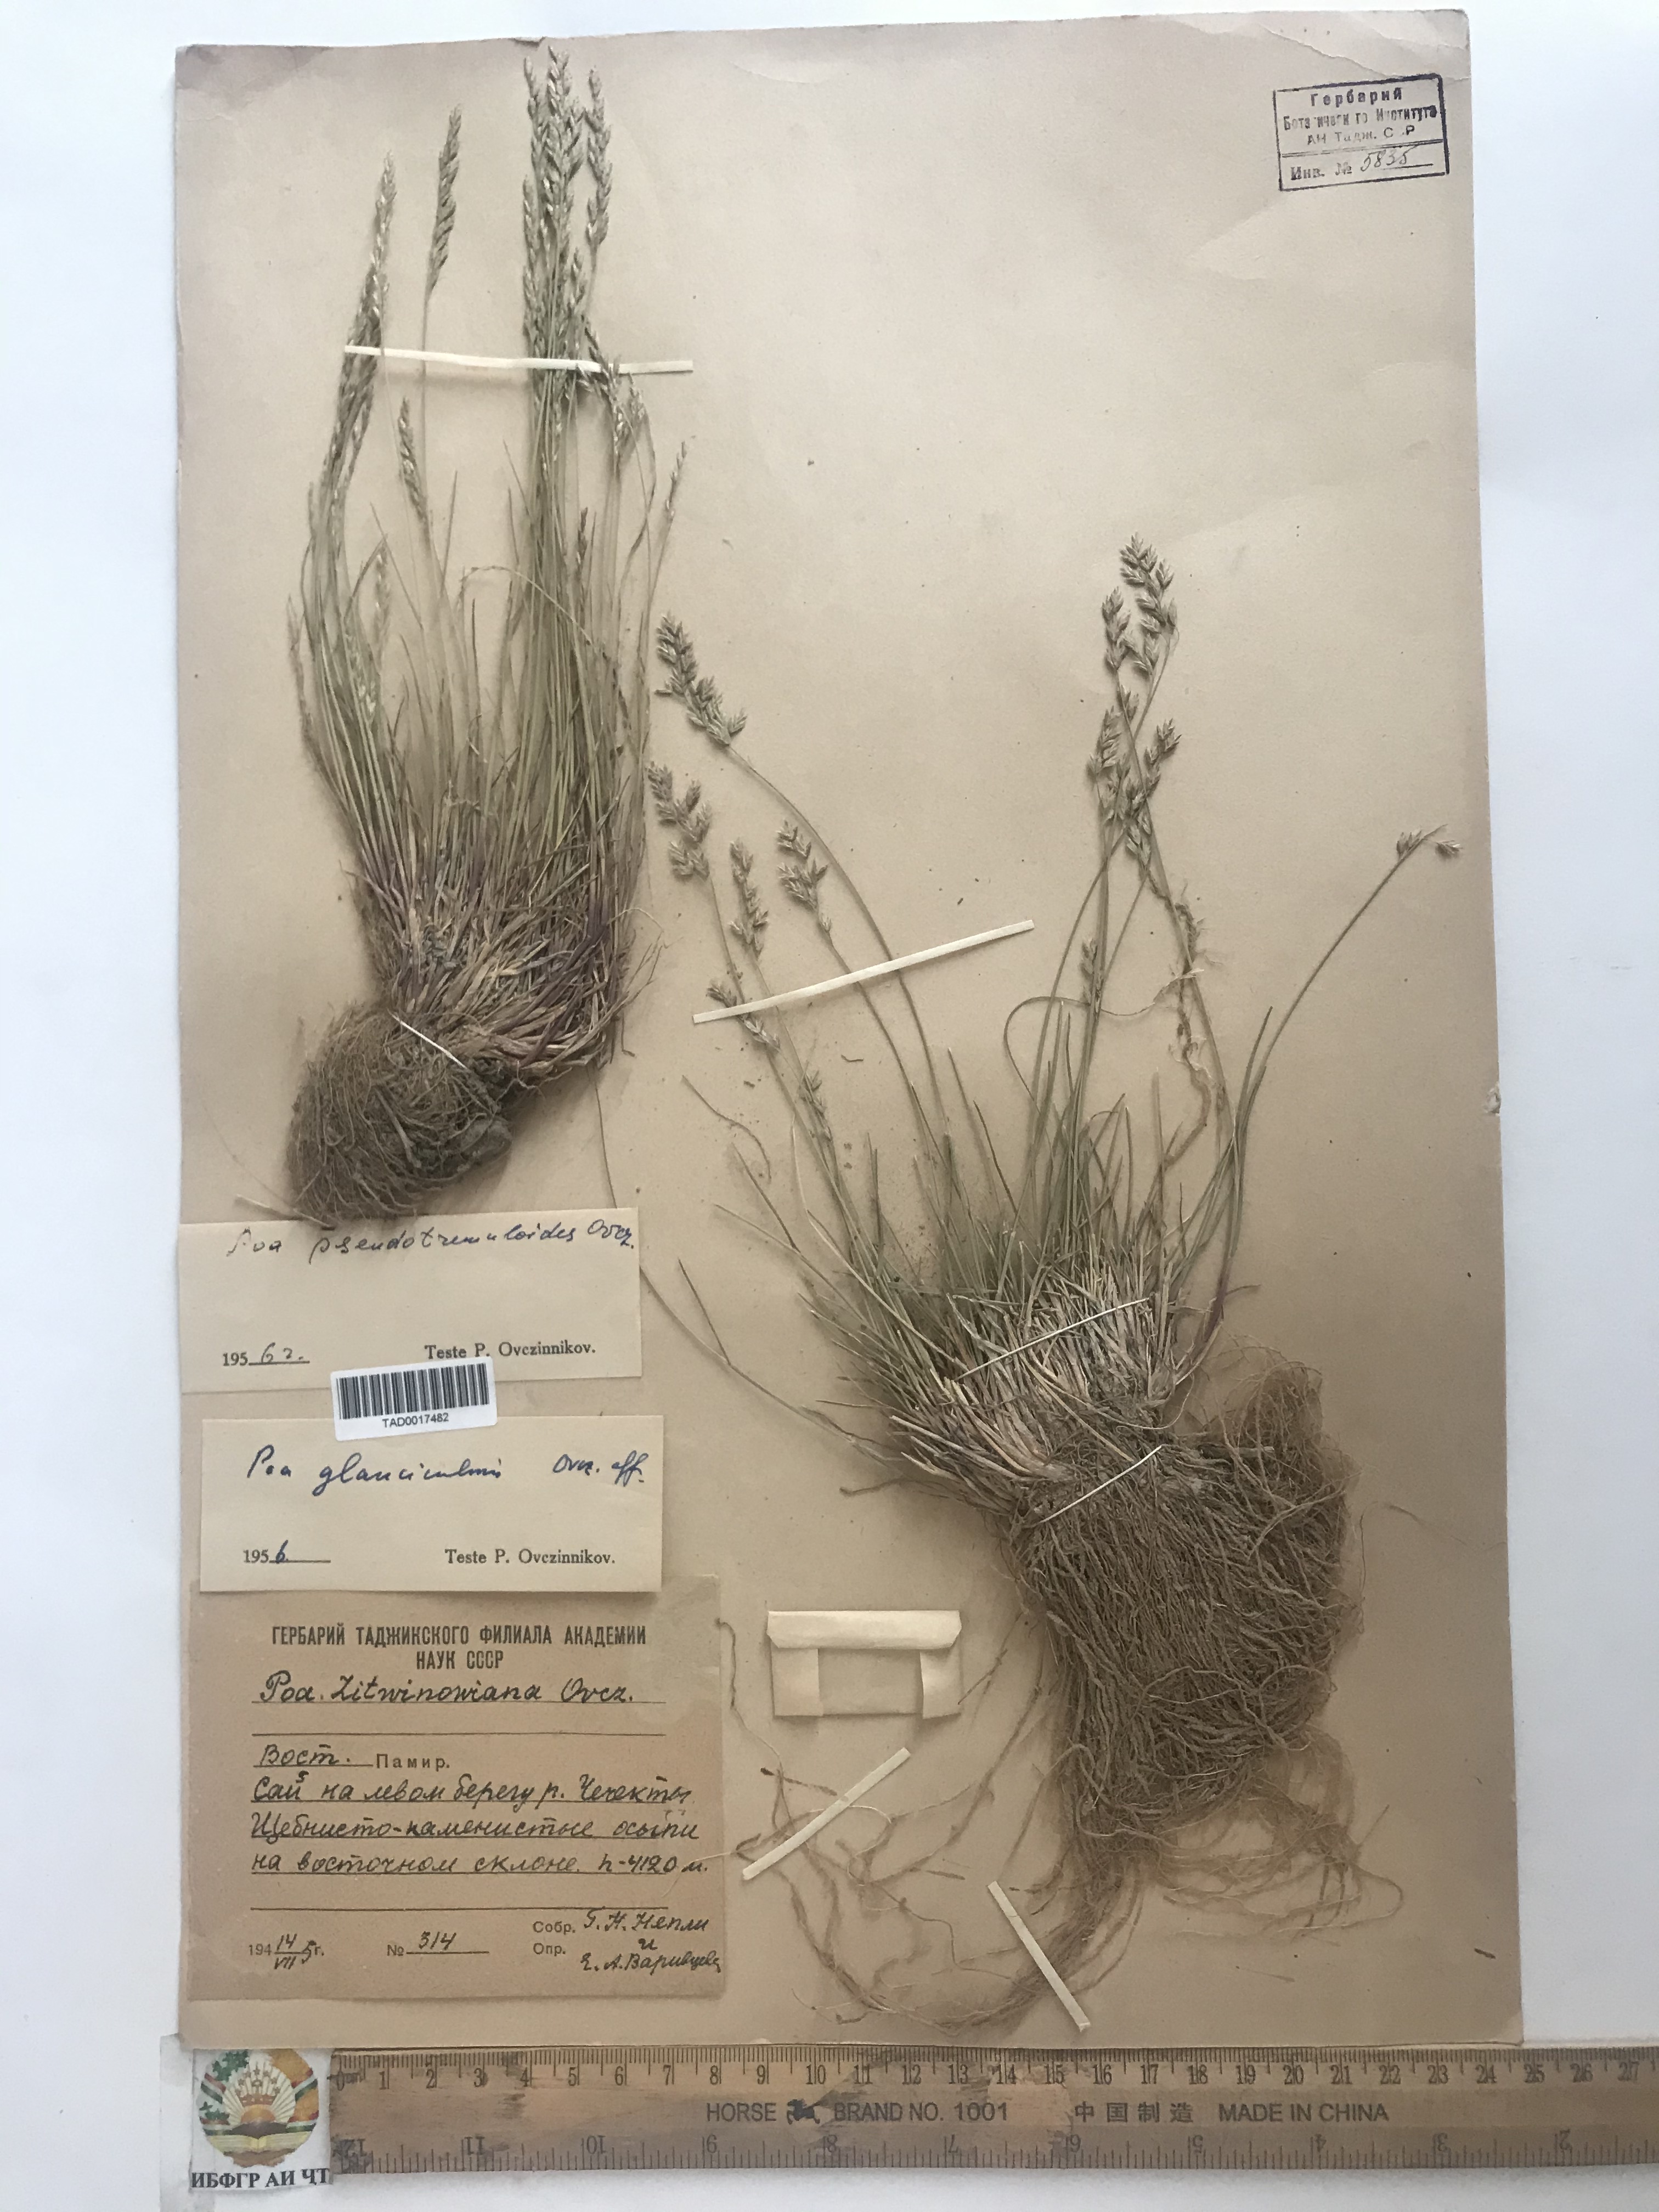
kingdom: Plantae
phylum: Tracheophyta
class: Liliopsida
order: Poales
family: Poaceae
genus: Poa
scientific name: Poa glauca
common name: Glaucous bluegrass
